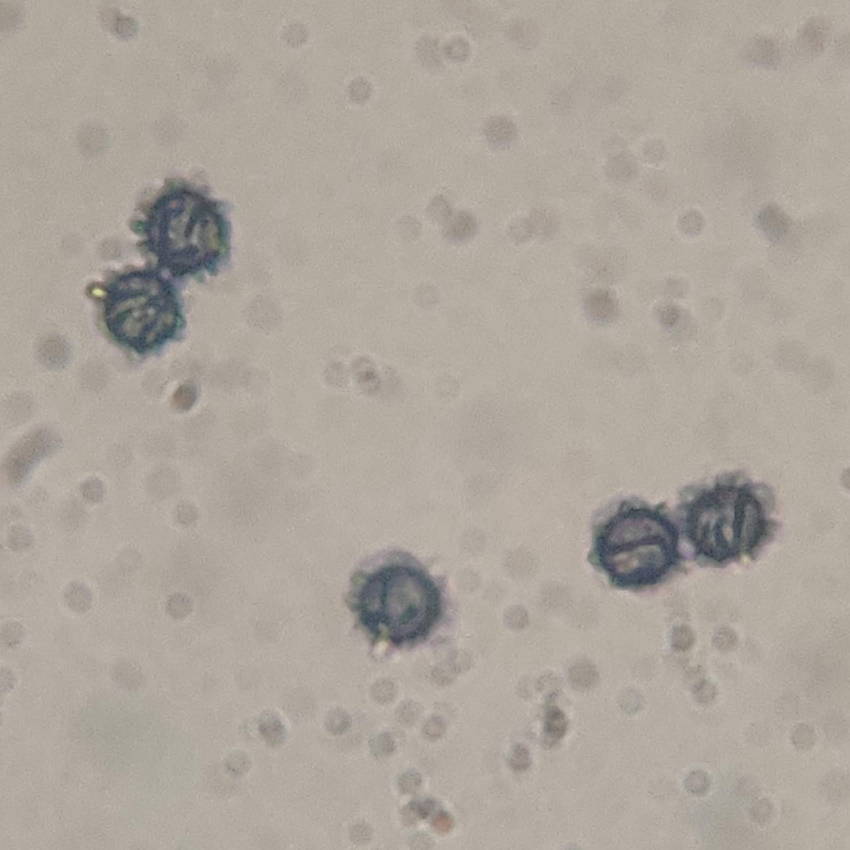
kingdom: Fungi
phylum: Basidiomycota
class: Agaricomycetes
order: Russulales
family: Russulaceae
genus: Lactarius
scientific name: Lactarius ruginosus
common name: gråbrun mælkehat
